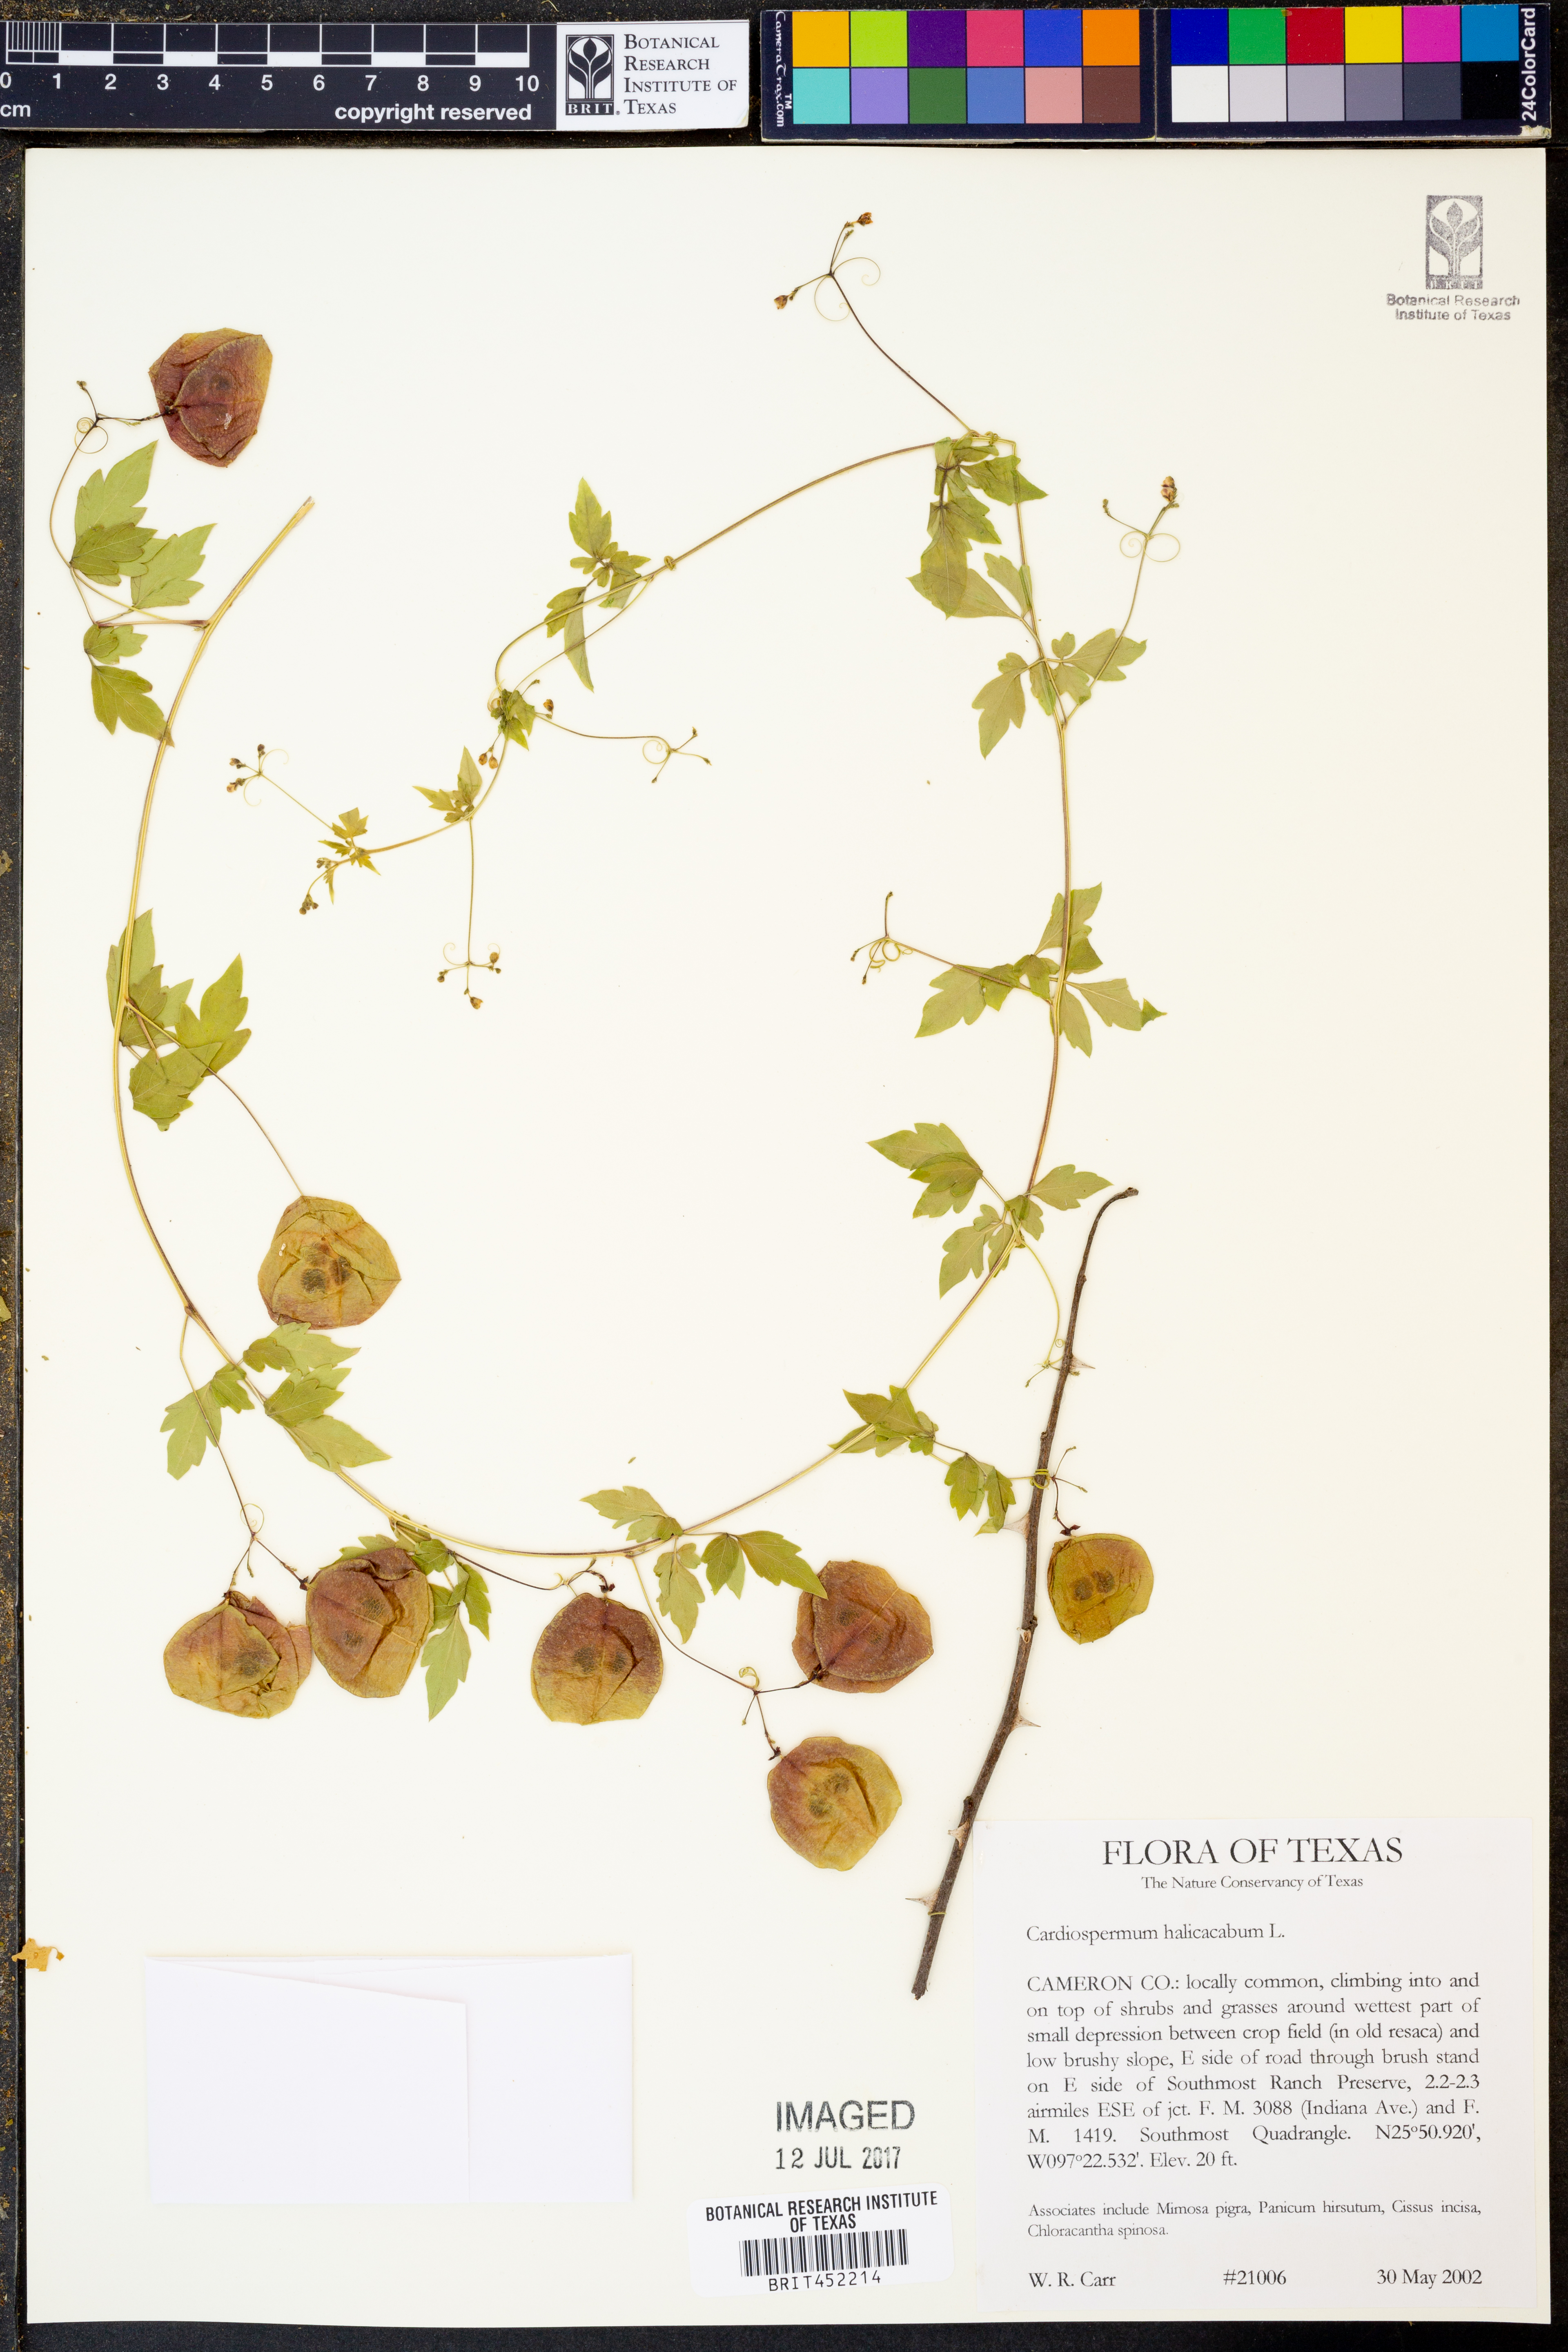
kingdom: Plantae
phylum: Tracheophyta
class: Magnoliopsida
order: Sapindales
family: Sapindaceae
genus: Cardiospermum
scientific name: Cardiospermum halicacabum
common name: Balloon vine
